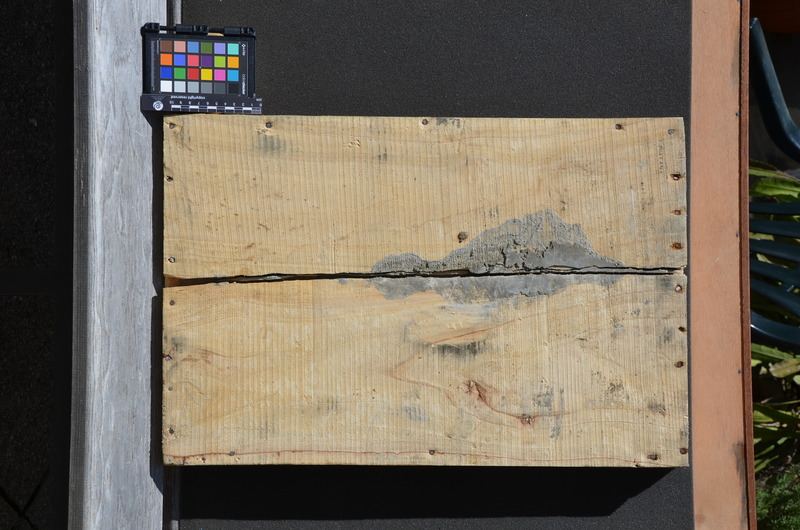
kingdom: Animalia
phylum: Chordata
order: Perciformes
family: Ephippidae
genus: Platax
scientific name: Platax altissimus
